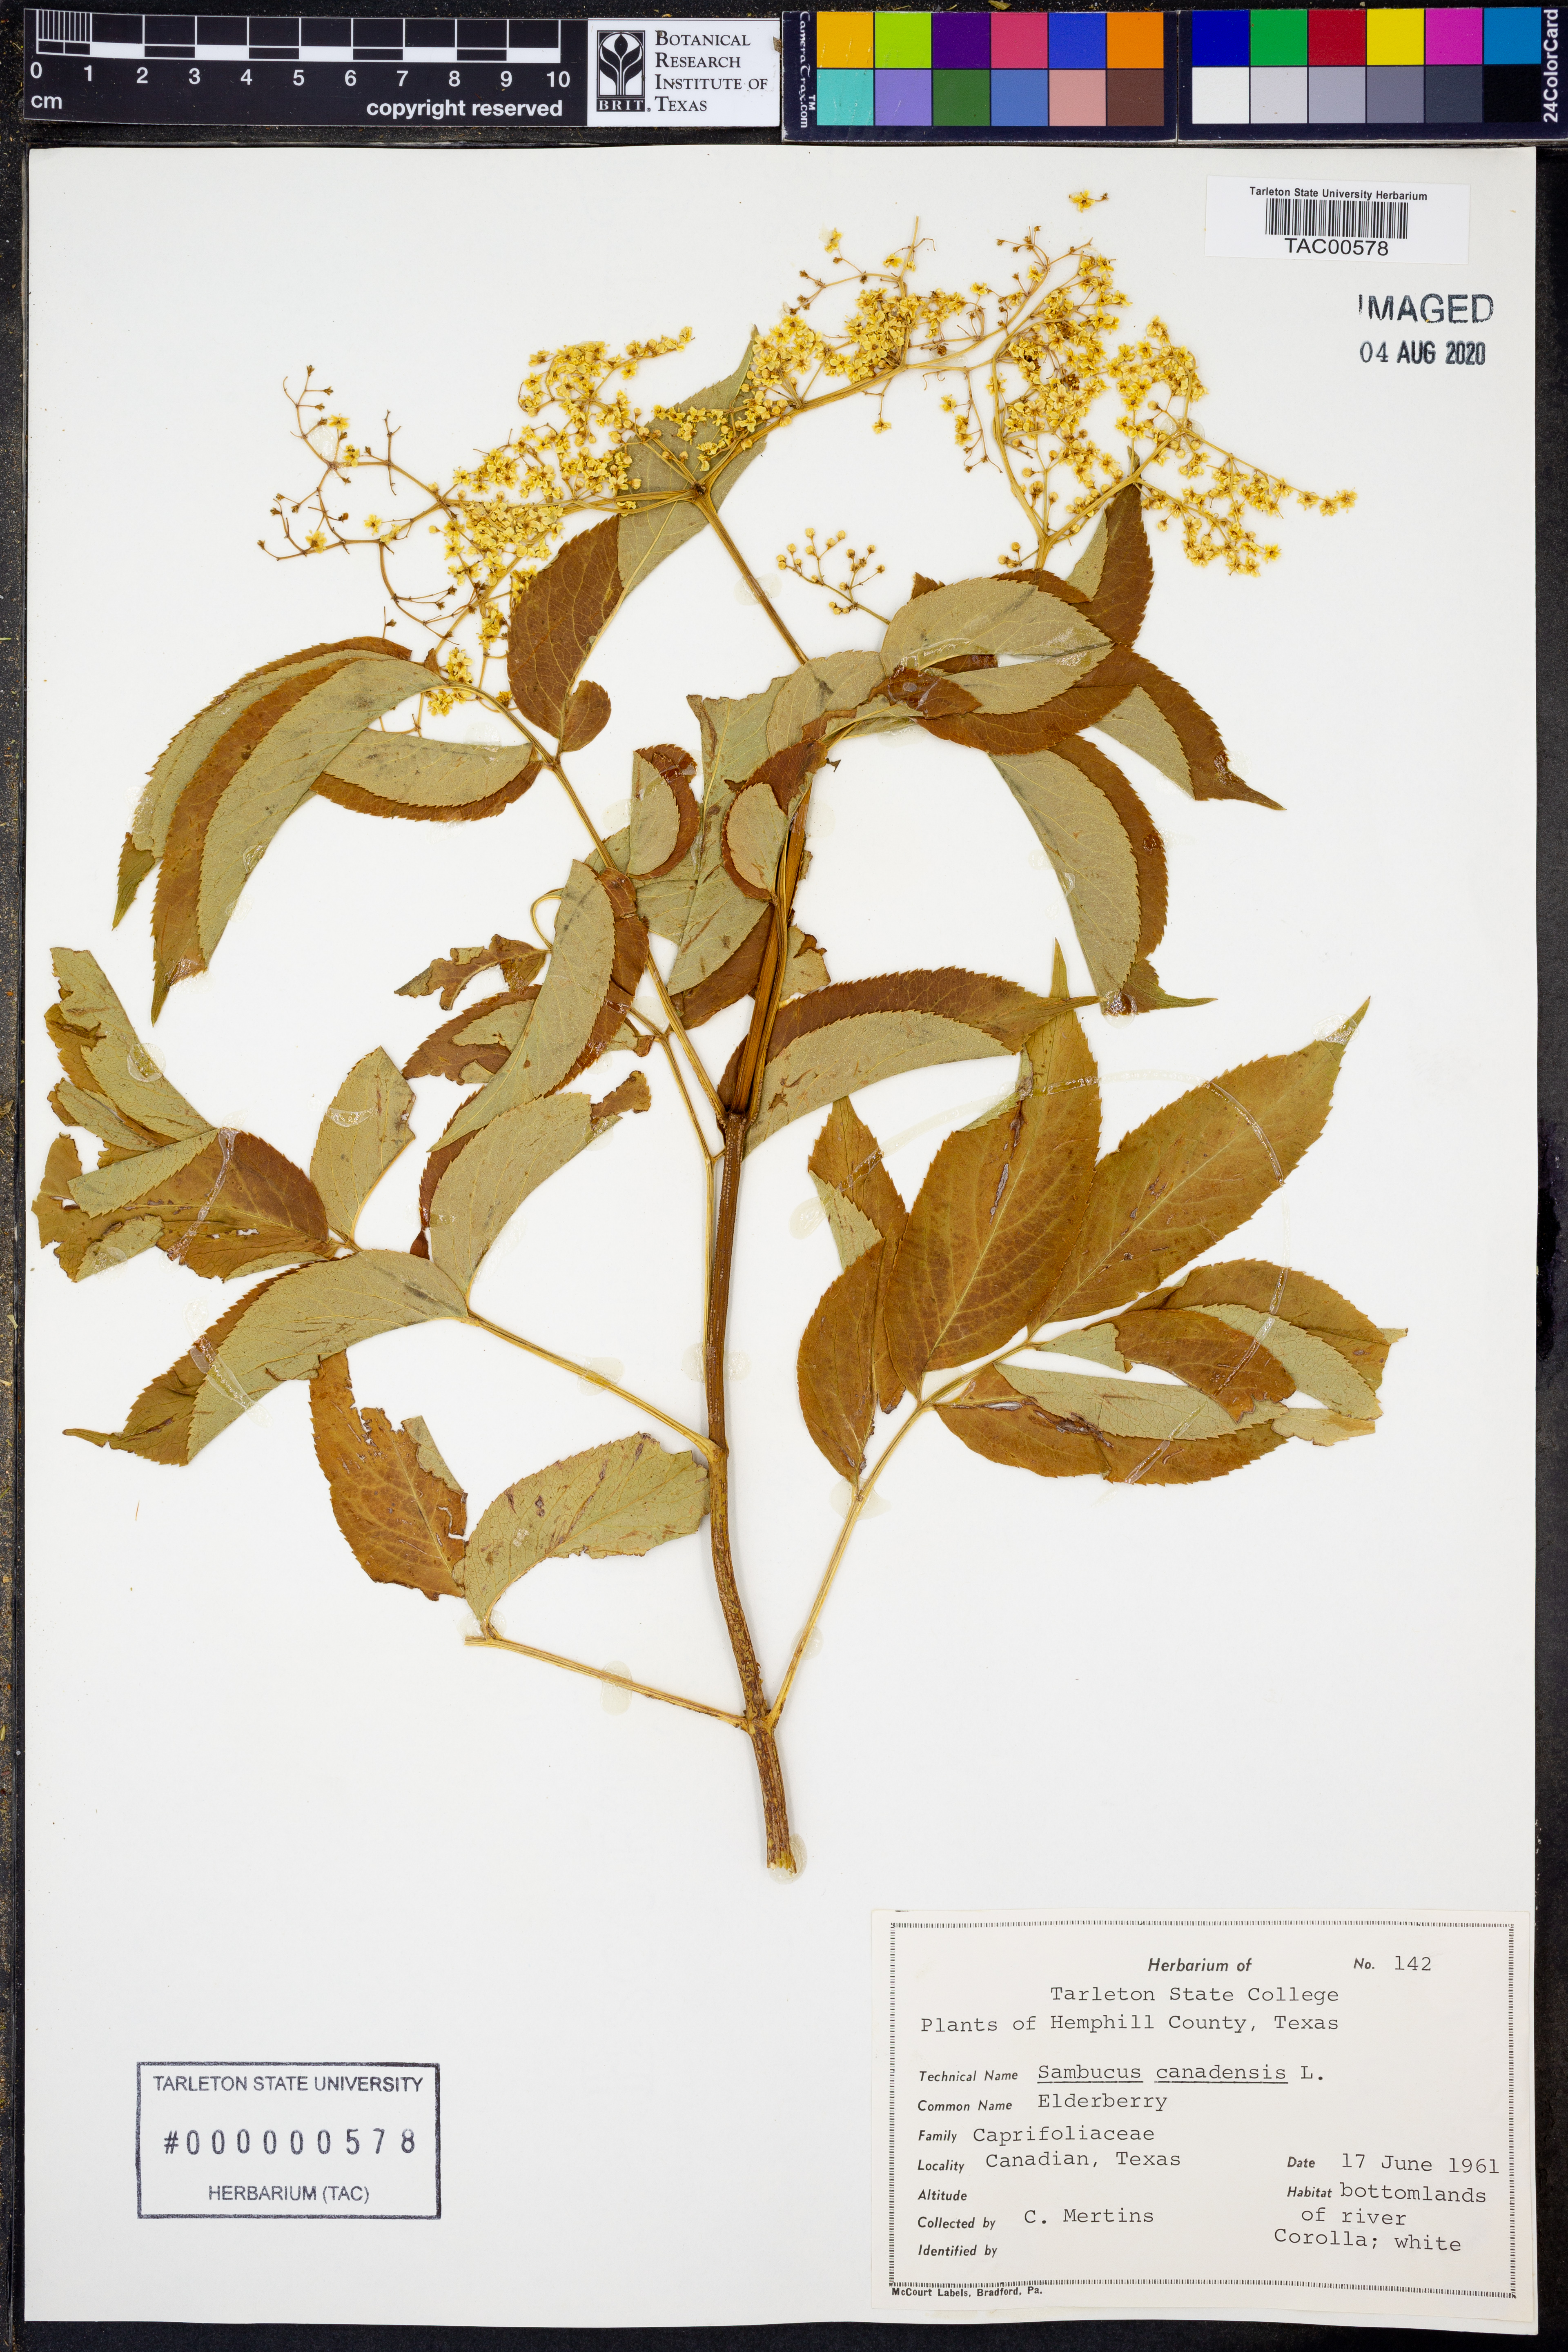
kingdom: Plantae
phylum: Tracheophyta
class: Magnoliopsida
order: Dipsacales
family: Viburnaceae
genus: Sambucus
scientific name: Sambucus canadensis
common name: American elder
